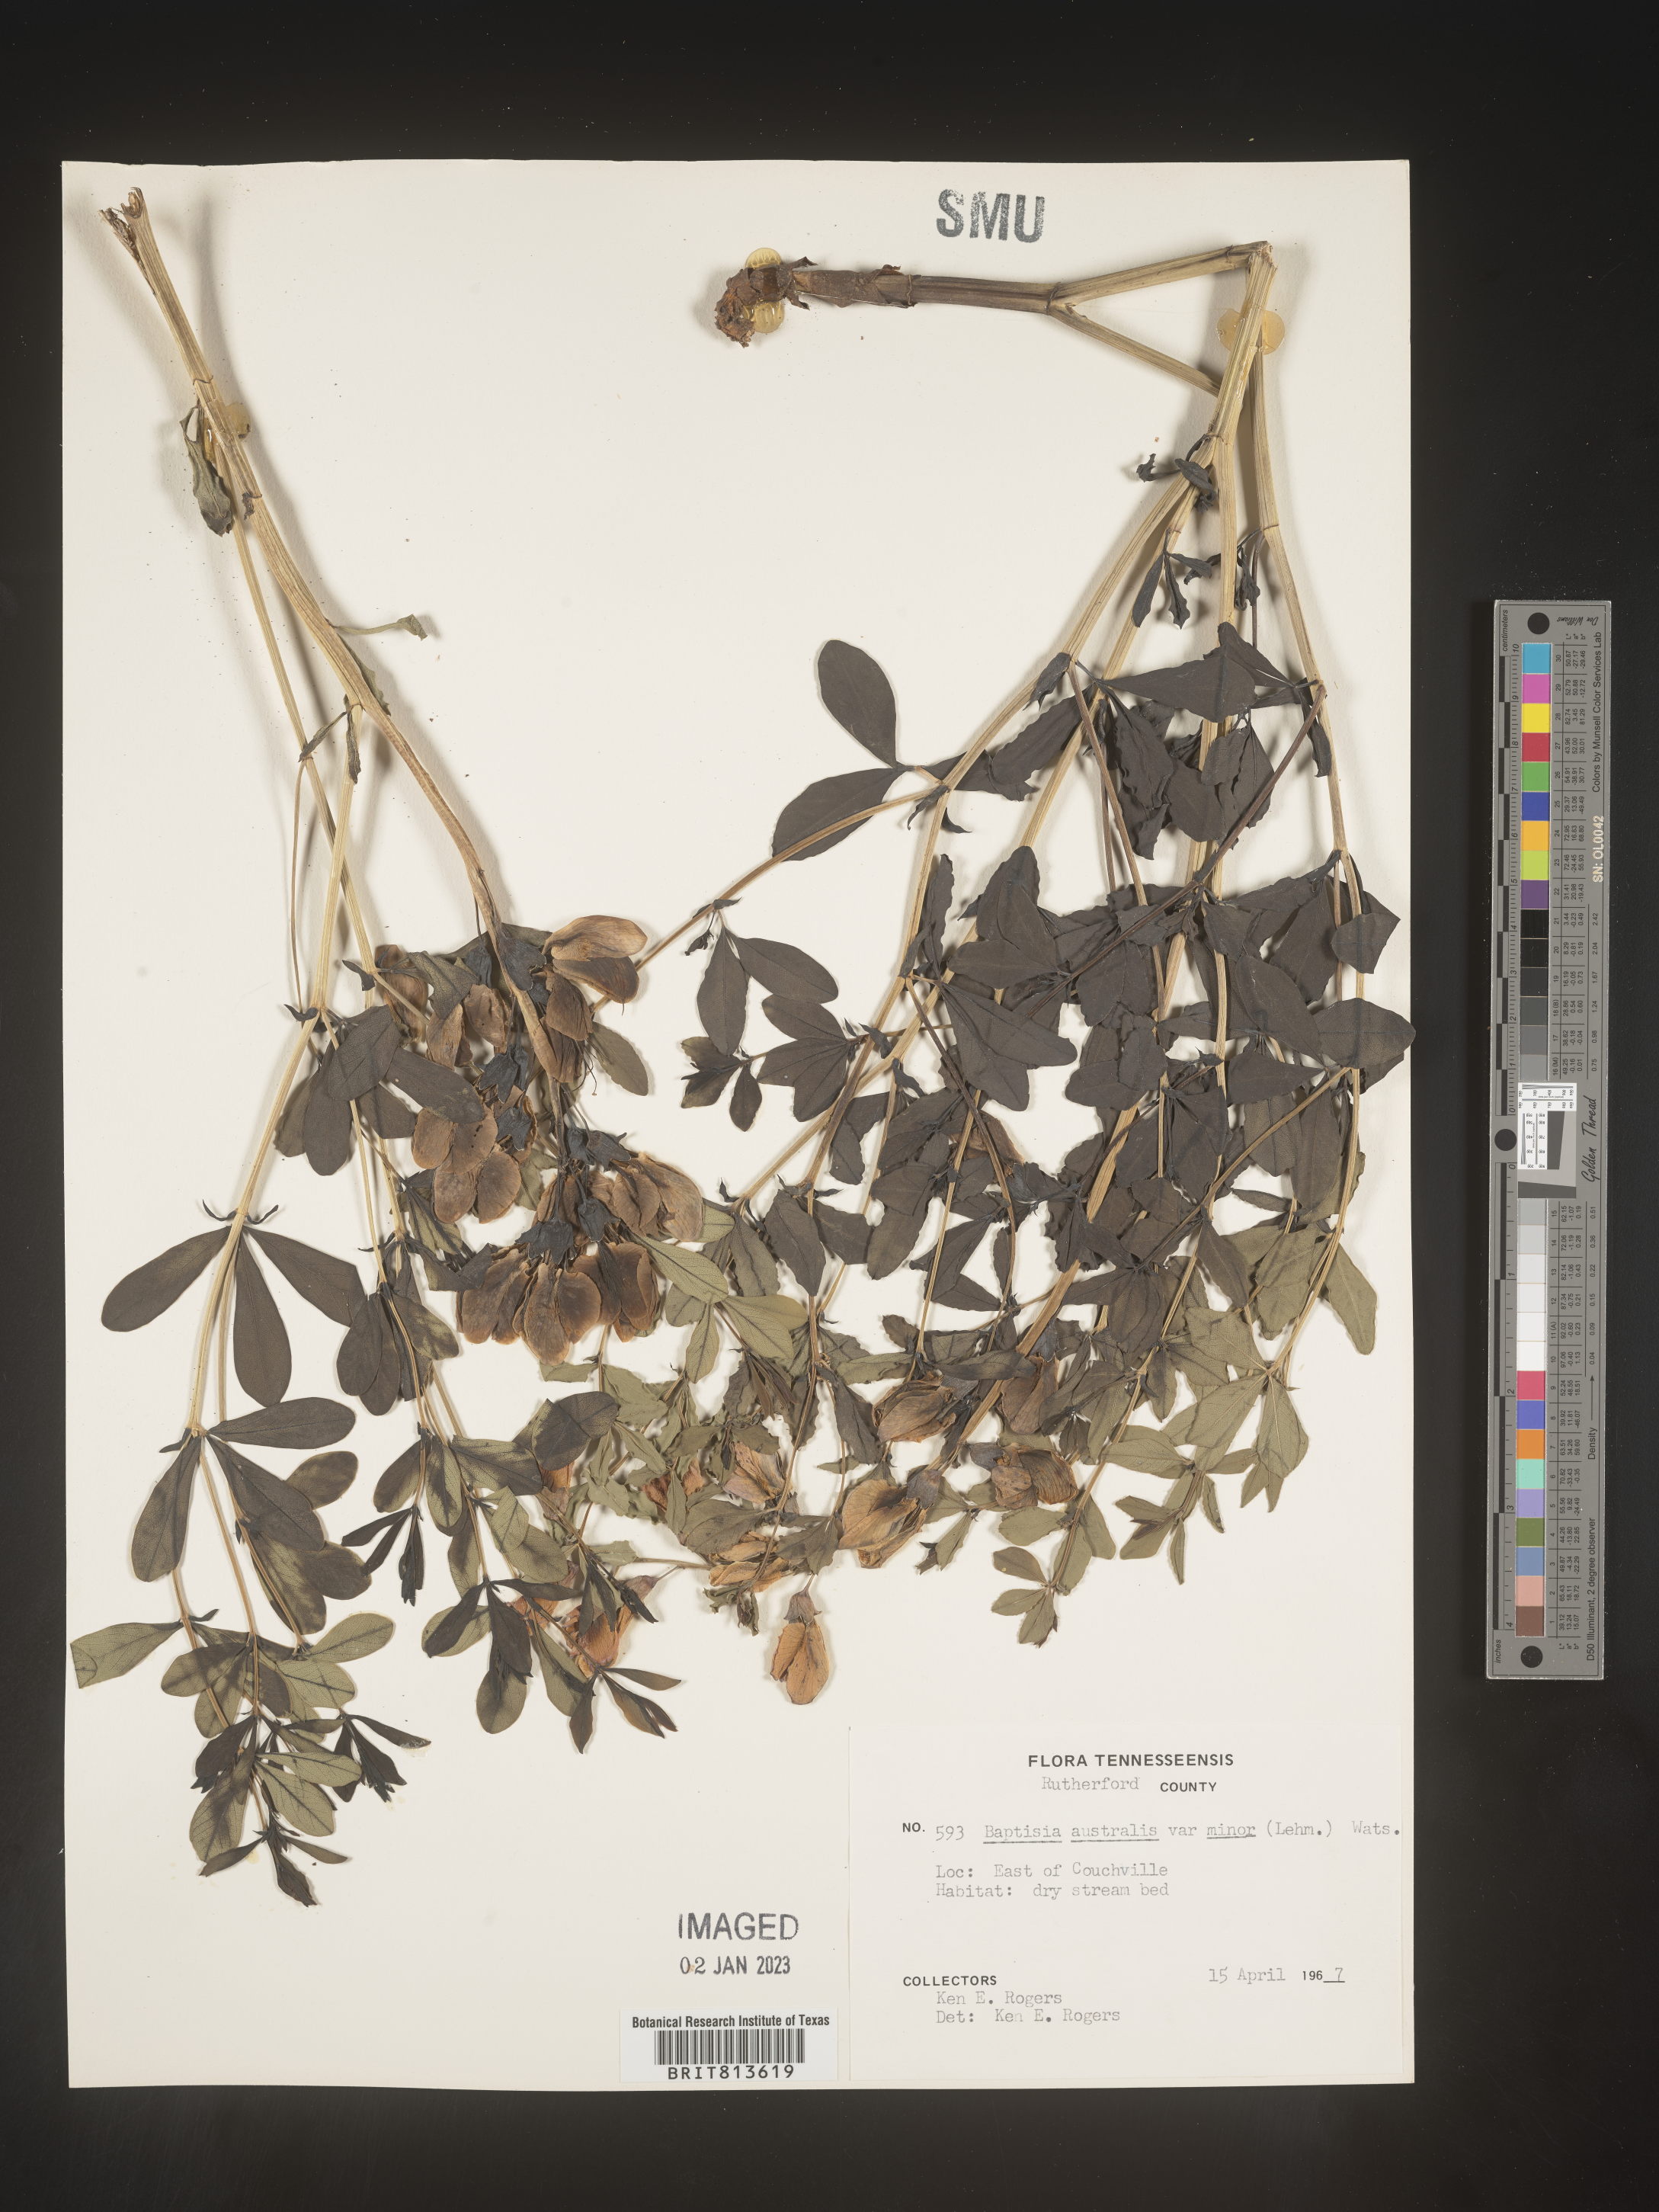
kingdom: Plantae
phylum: Tracheophyta
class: Magnoliopsida
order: Fabales
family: Fabaceae
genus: Baptisia
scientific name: Baptisia australis
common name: Blue false indigo
